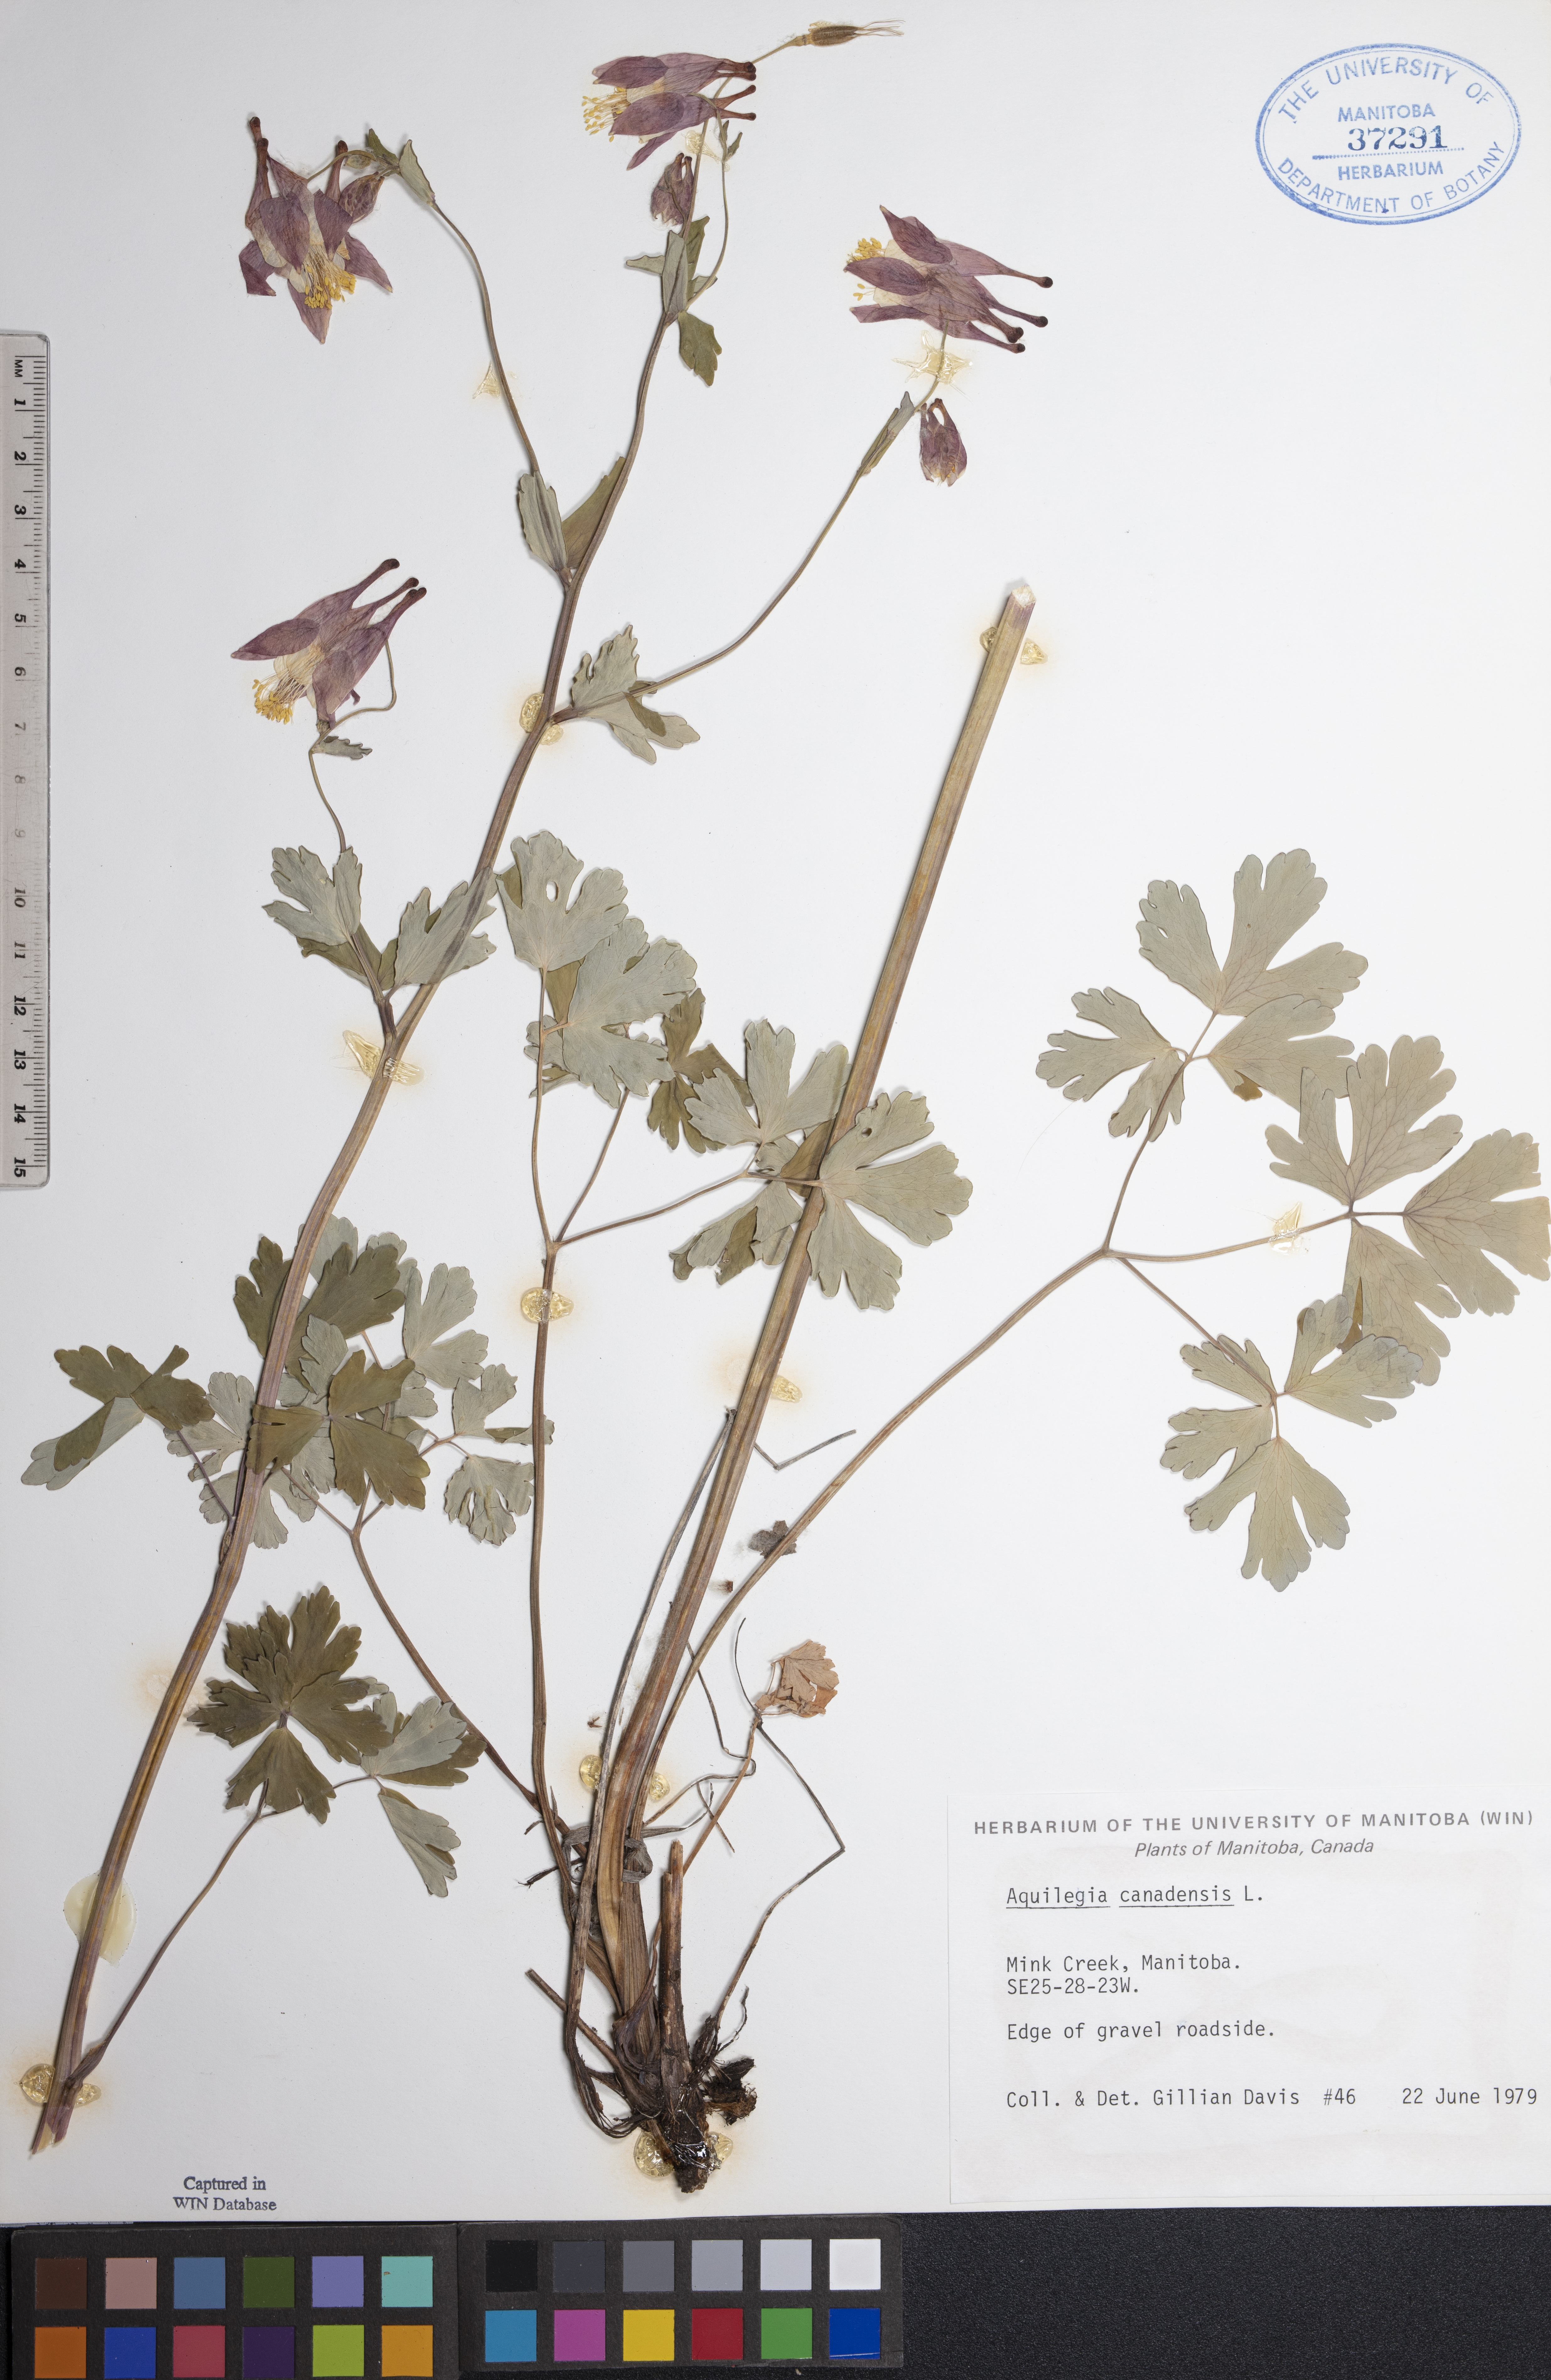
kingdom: Plantae
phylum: Tracheophyta
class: Magnoliopsida
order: Ranunculales
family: Ranunculaceae
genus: Aquilegia
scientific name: Aquilegia canadensis
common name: American columbine
